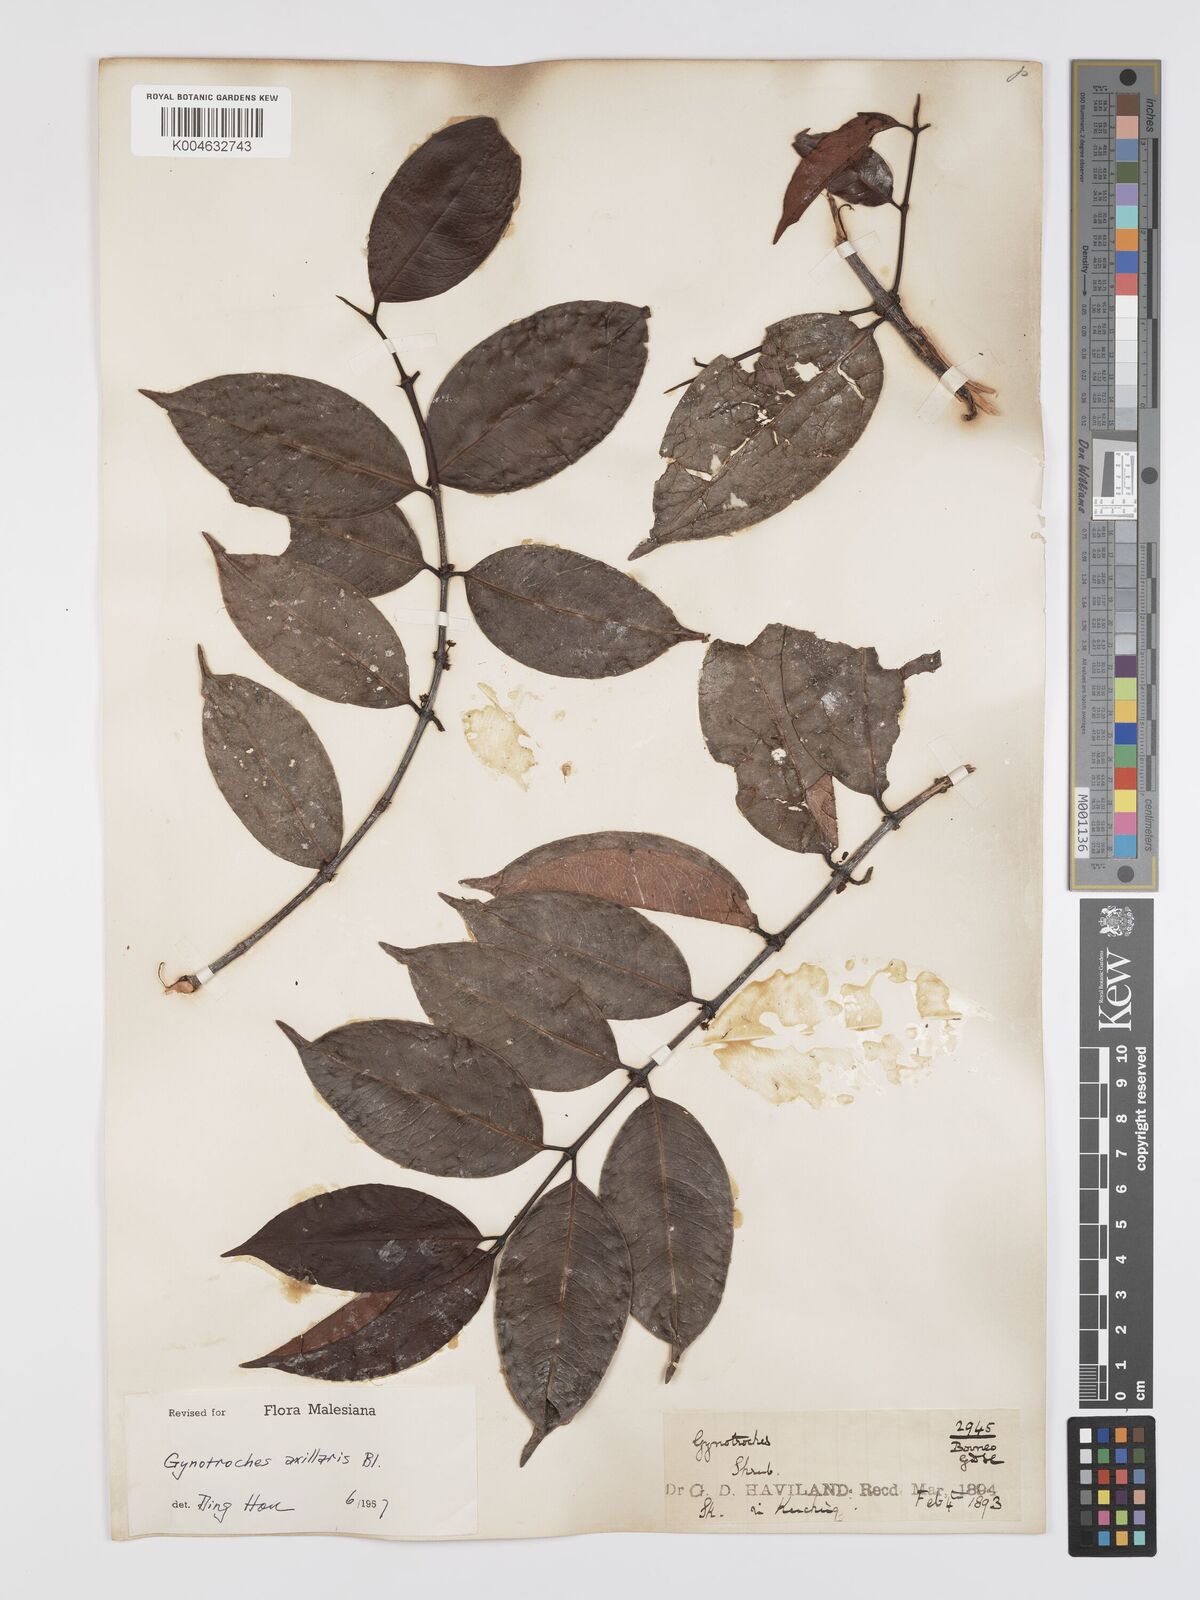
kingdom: Plantae
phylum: Tracheophyta
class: Magnoliopsida
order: Malpighiales
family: Rhizophoraceae
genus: Gynotroches
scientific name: Gynotroches axillaris
